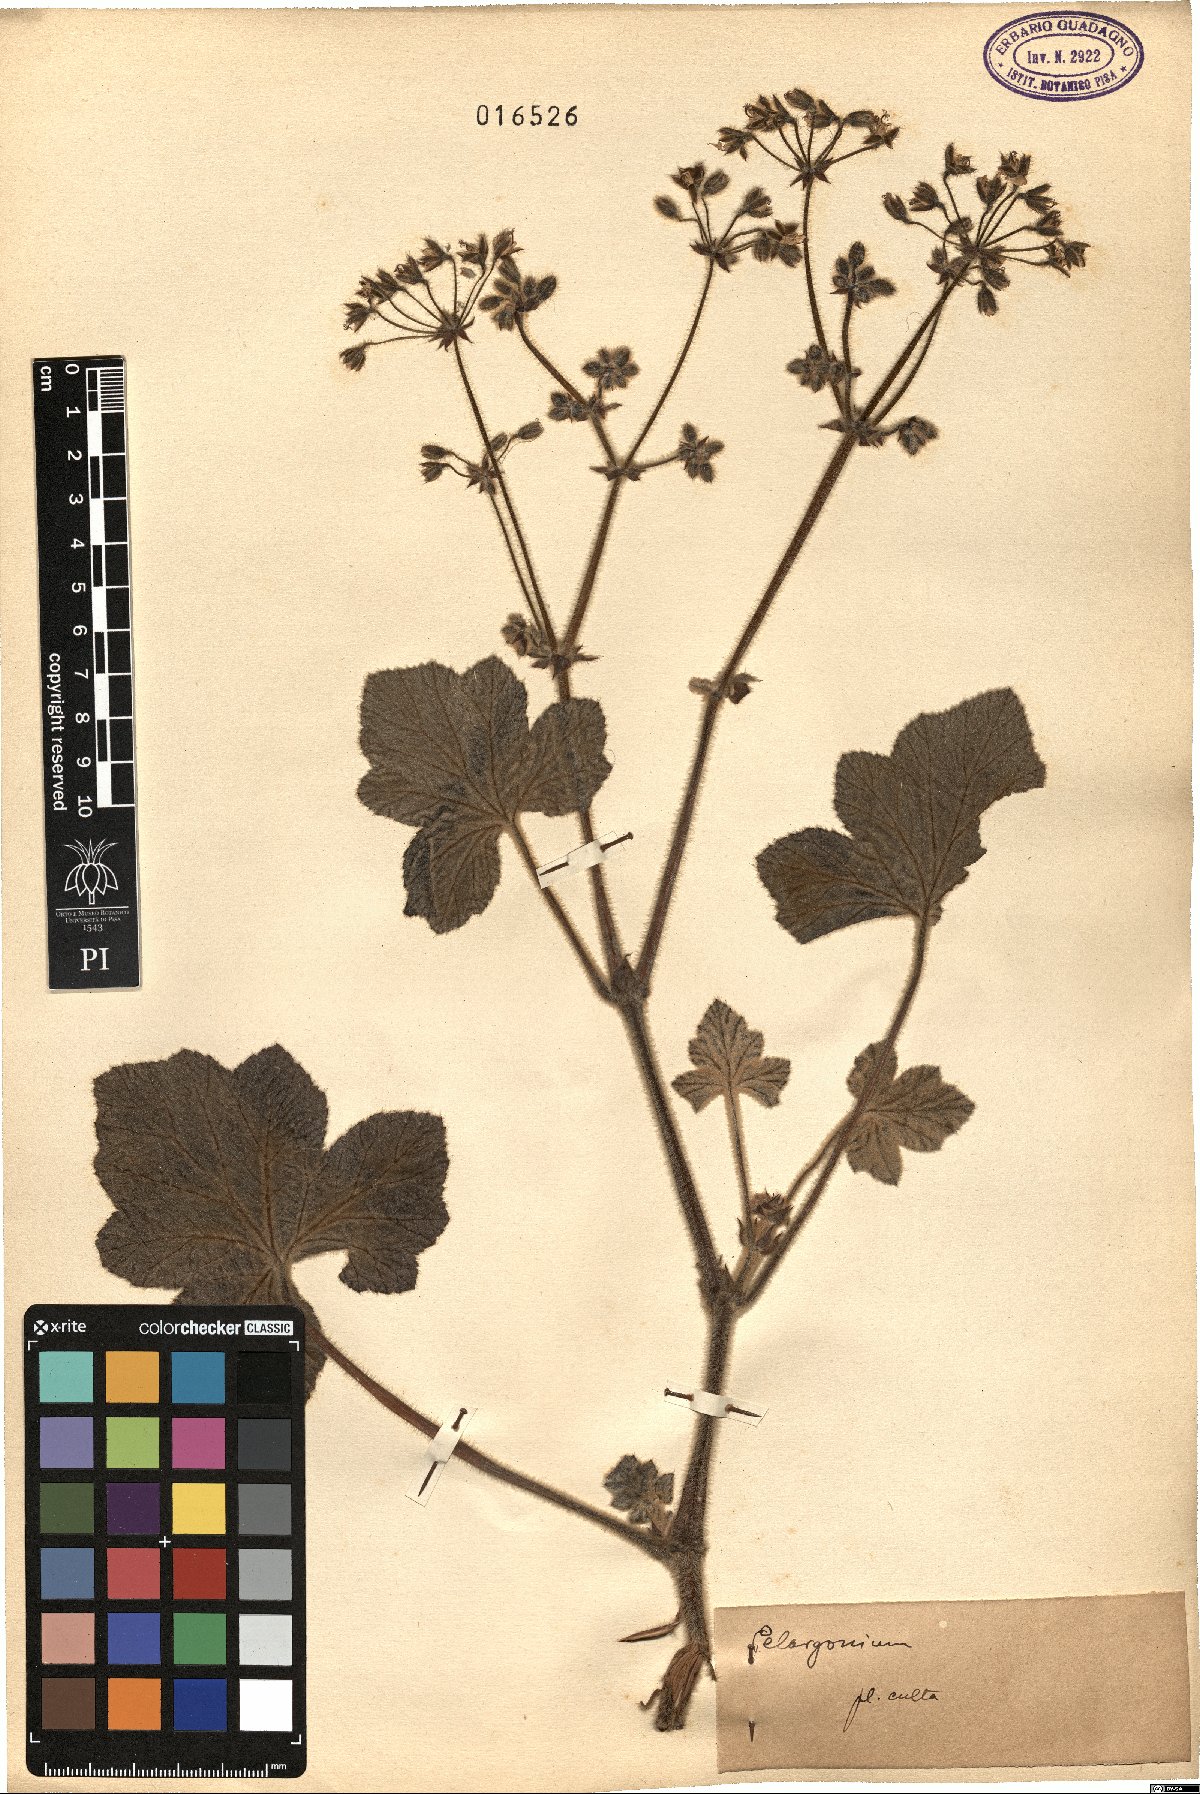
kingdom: Plantae
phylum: Tracheophyta
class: Magnoliopsida
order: Geraniales
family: Geraniaceae
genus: Pelargonium
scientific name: Pelargonium
